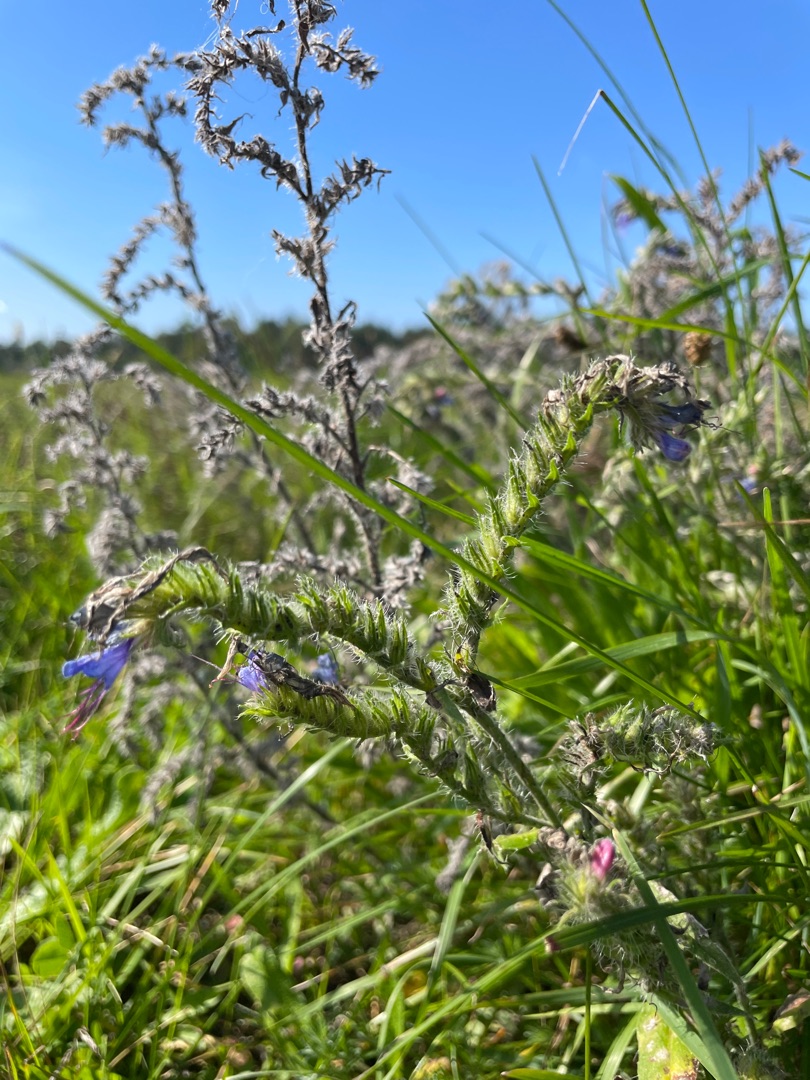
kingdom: Plantae
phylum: Tracheophyta
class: Magnoliopsida
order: Boraginales
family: Boraginaceae
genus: Echium
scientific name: Echium vulgare
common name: Slangehoved
